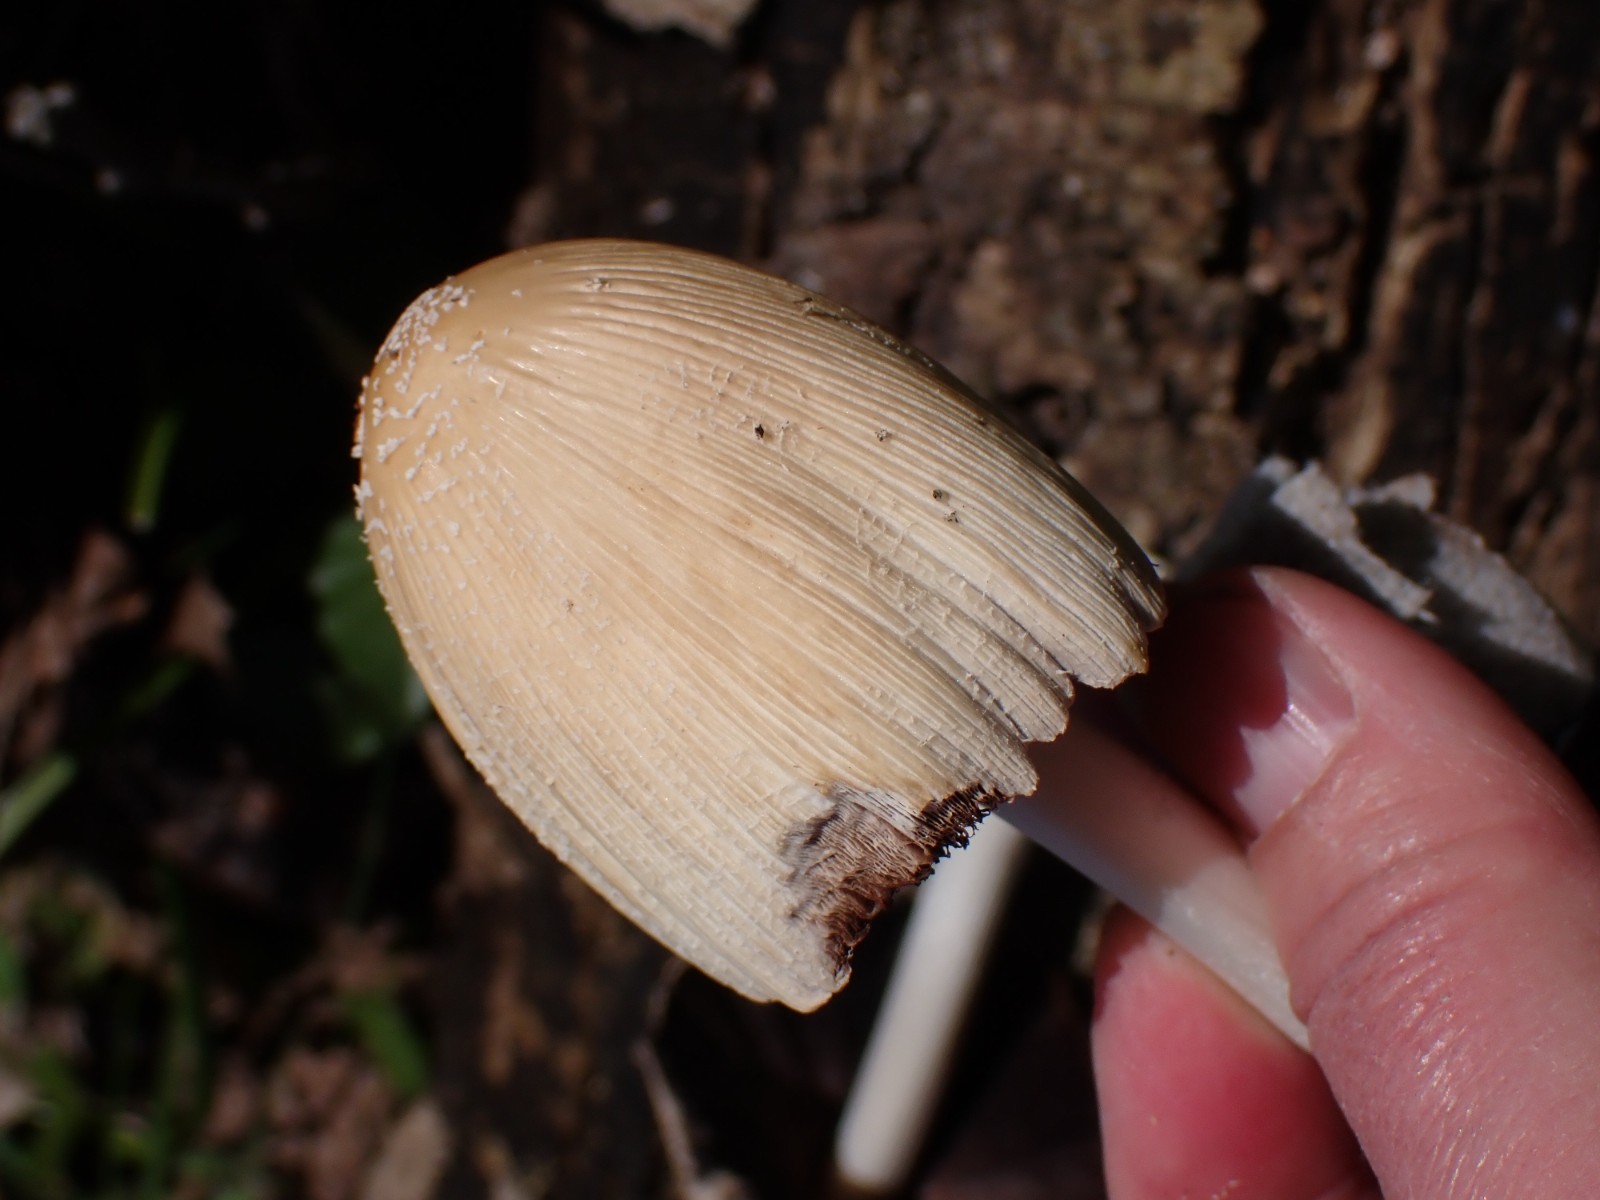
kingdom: Fungi
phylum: Basidiomycota
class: Agaricomycetes
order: Agaricales
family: Psathyrellaceae
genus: Coprinellus
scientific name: Coprinellus
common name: blækhat
